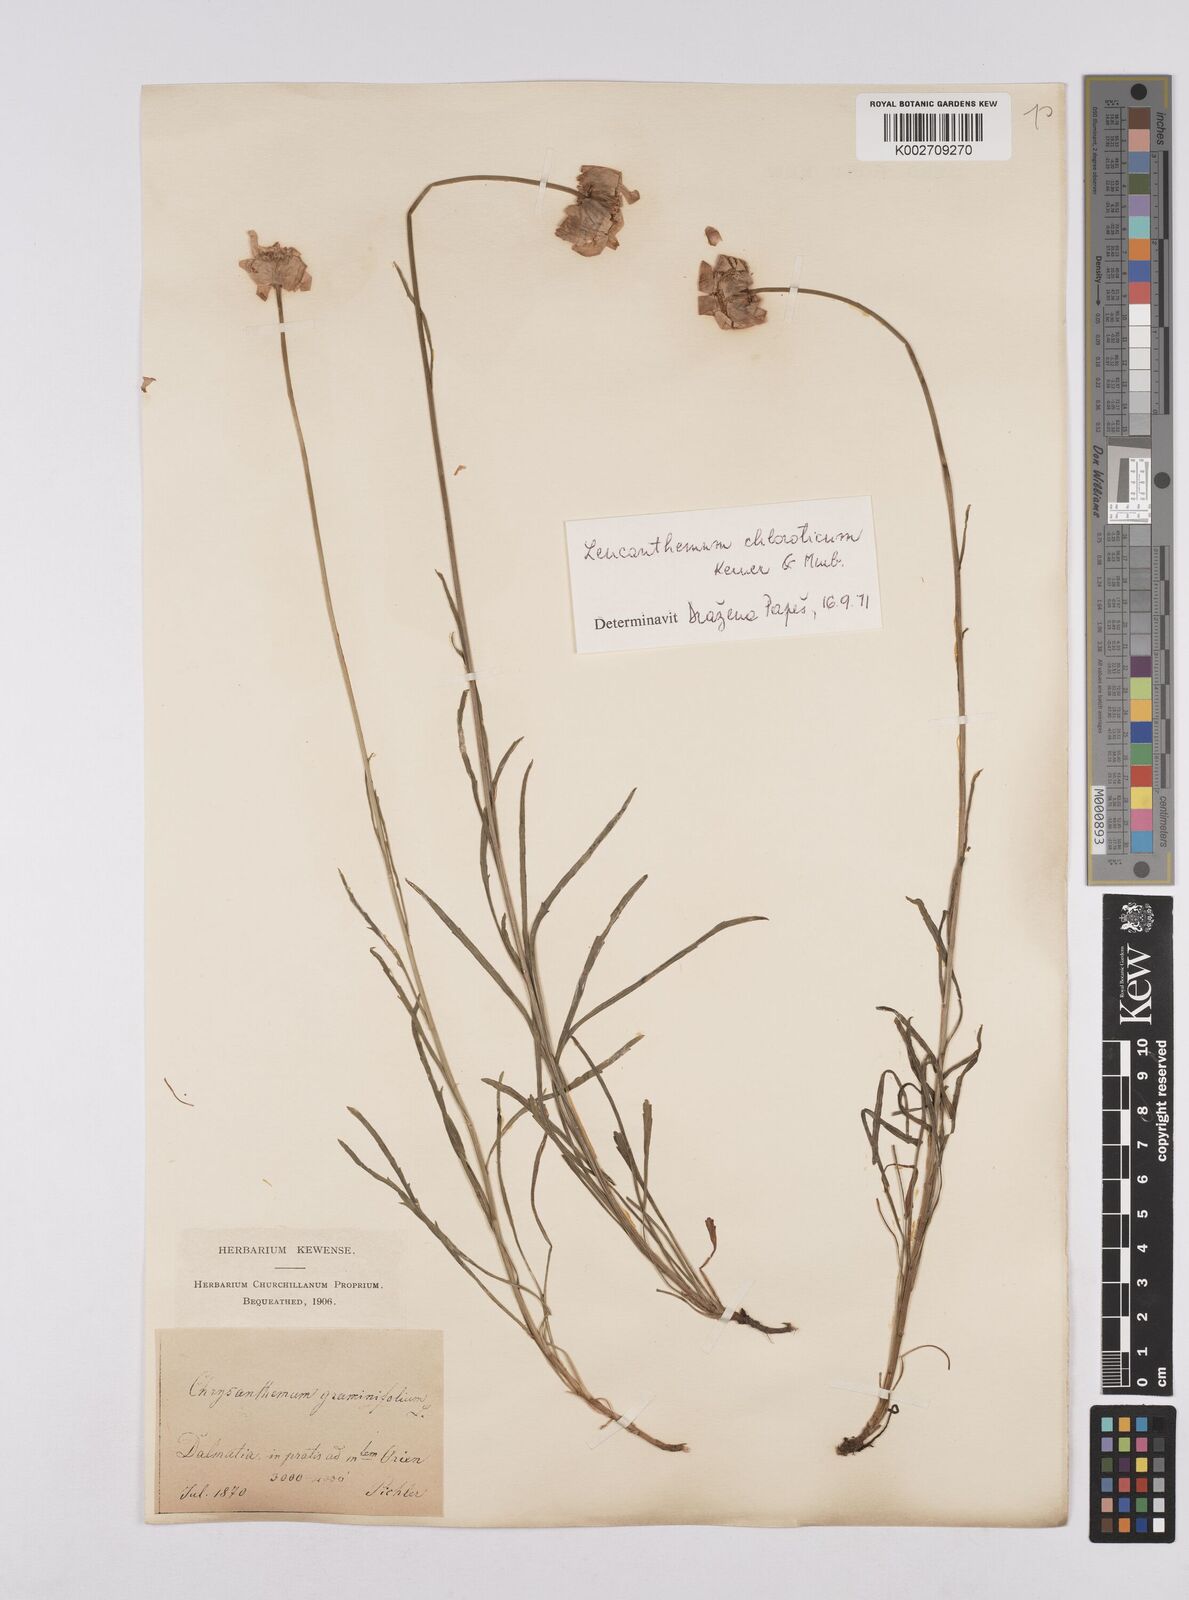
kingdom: Plantae
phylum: Tracheophyta
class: Magnoliopsida
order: Asterales
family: Asteraceae
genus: Leucanthemum
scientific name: Leucanthemum chloroticum
